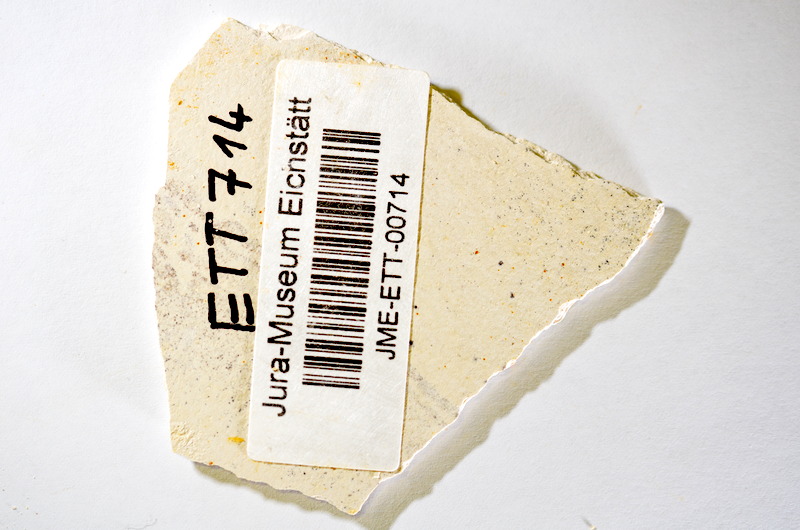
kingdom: Animalia
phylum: Chordata
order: Salmoniformes
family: Orthogonikleithridae
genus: Orthogonikleithrus
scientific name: Orthogonikleithrus hoelli
